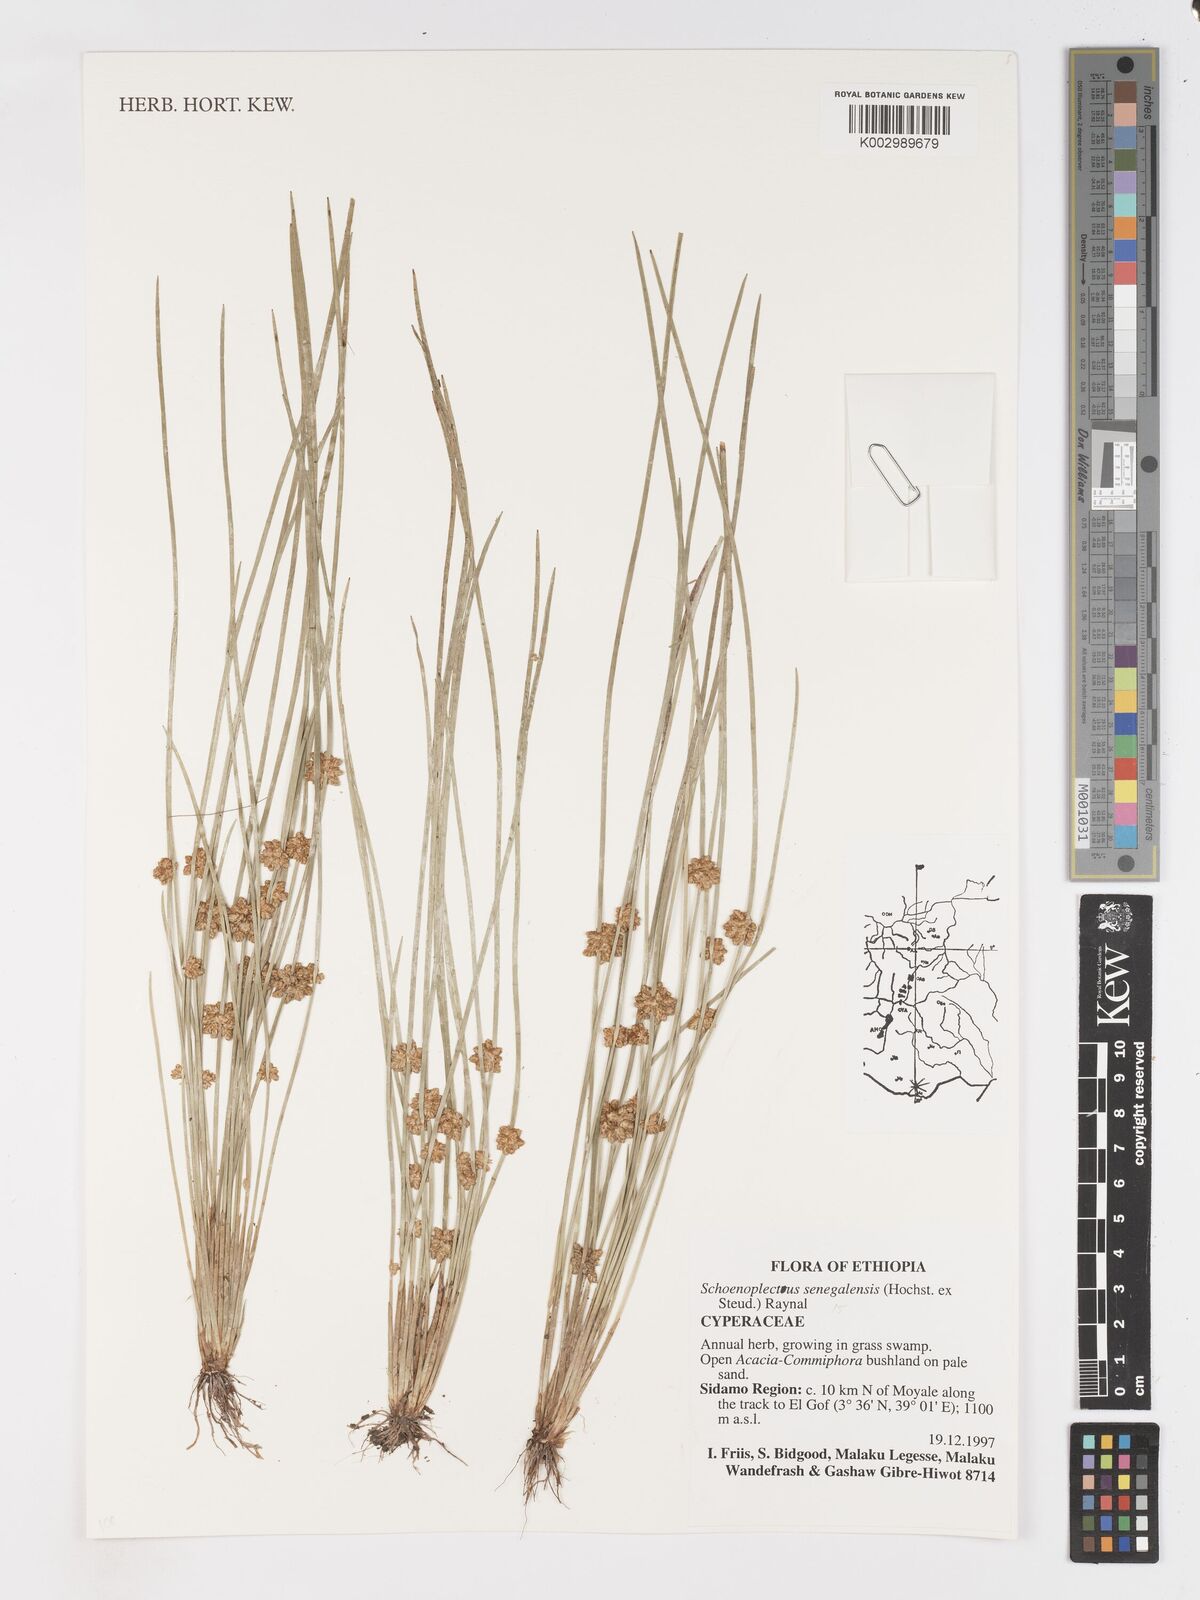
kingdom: Plantae
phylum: Tracheophyta
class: Liliopsida
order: Poales
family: Cyperaceae
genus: Schoenoplectiella
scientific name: Schoenoplectiella senegalensis
